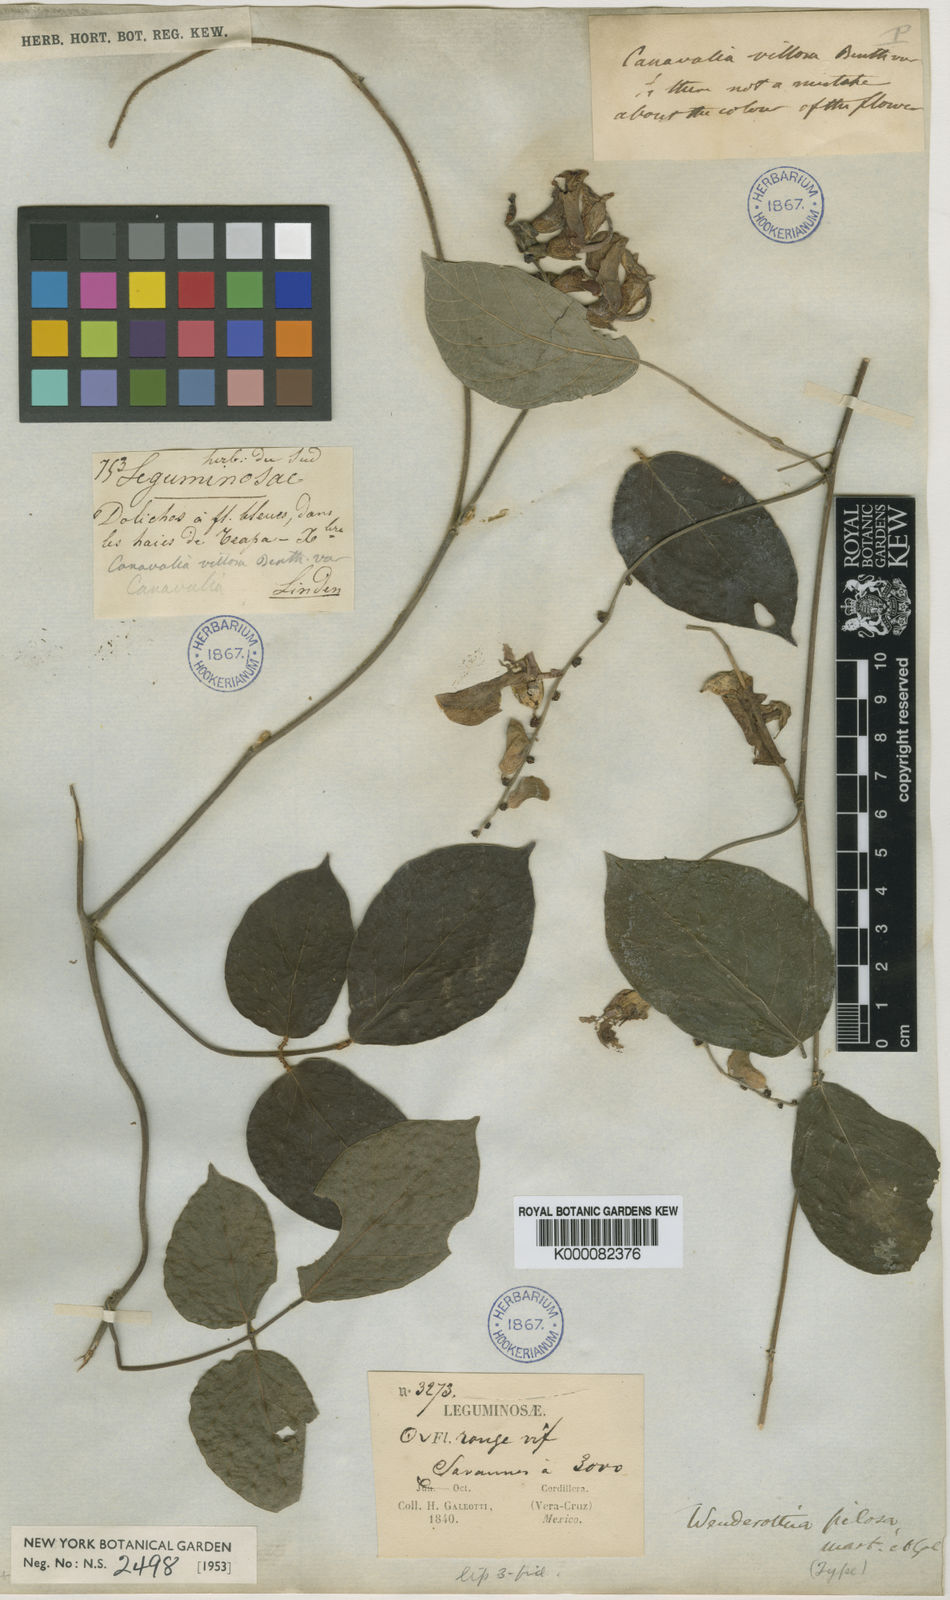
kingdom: Plantae
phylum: Tracheophyta
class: Magnoliopsida
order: Fabales
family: Fabaceae
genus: Canavalia
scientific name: Canavalia villosa
